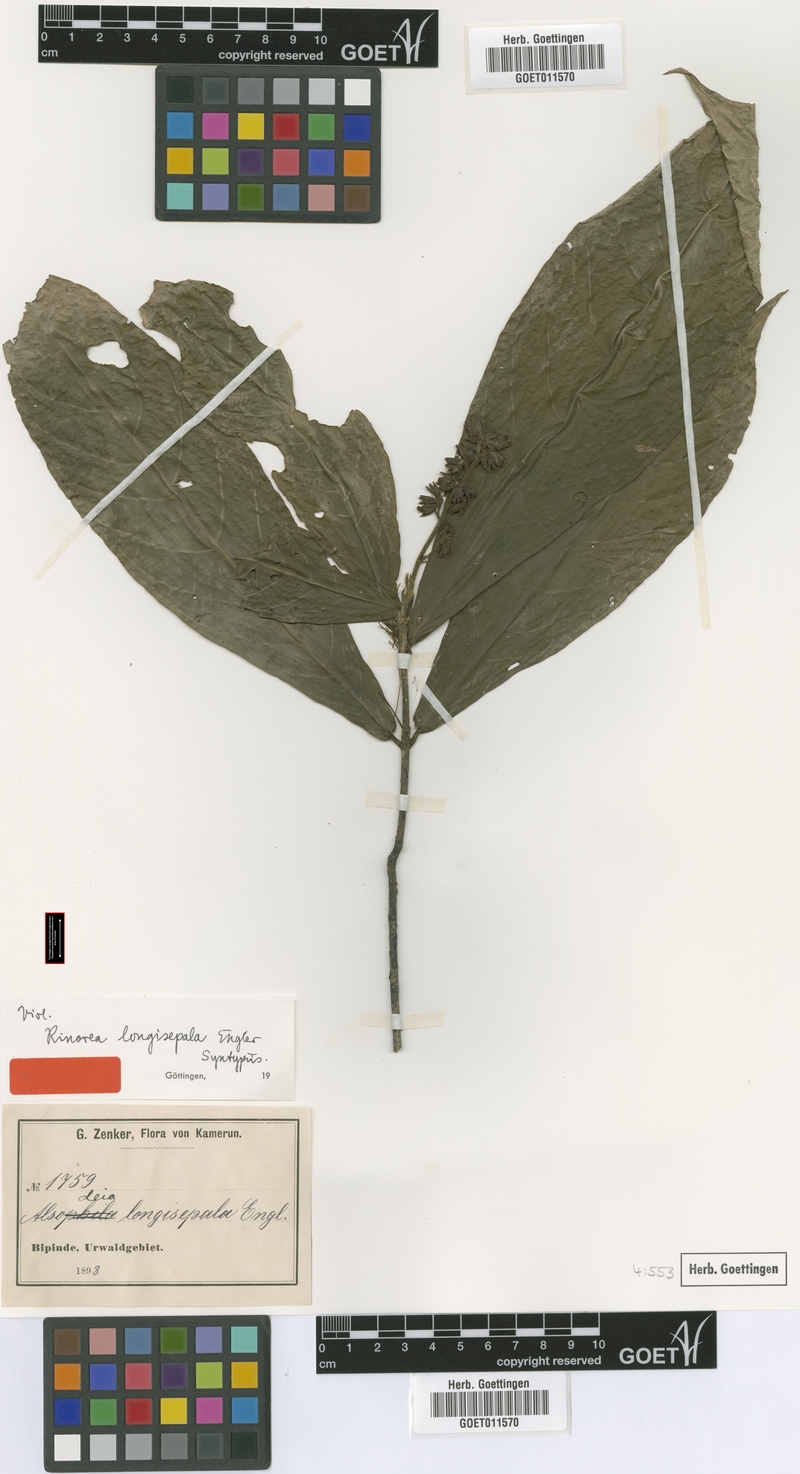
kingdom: Plantae
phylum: Tracheophyta
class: Magnoliopsida
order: Malpighiales
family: Violaceae
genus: Rinorea
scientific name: Rinorea longisepala
